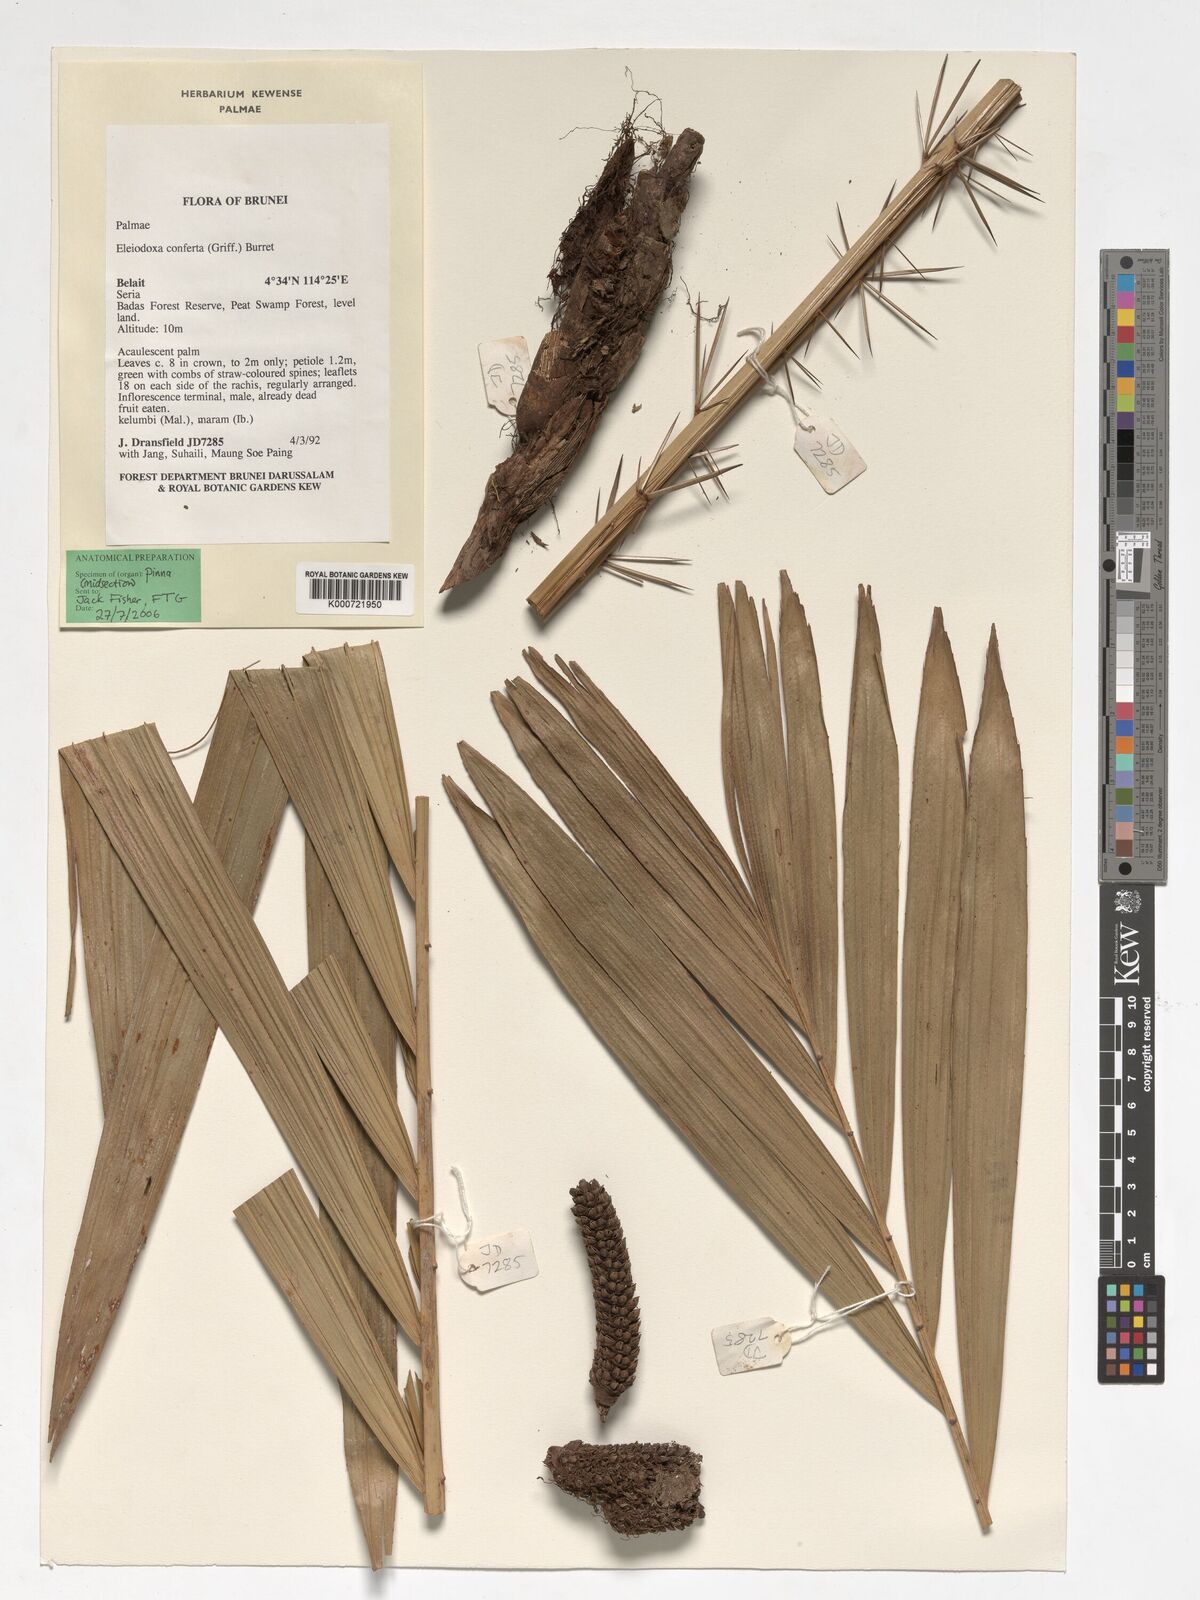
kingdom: Plantae
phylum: Tracheophyta
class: Liliopsida
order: Arecales
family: Arecaceae
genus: Eleiodoxa
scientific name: Eleiodoxa conferta
